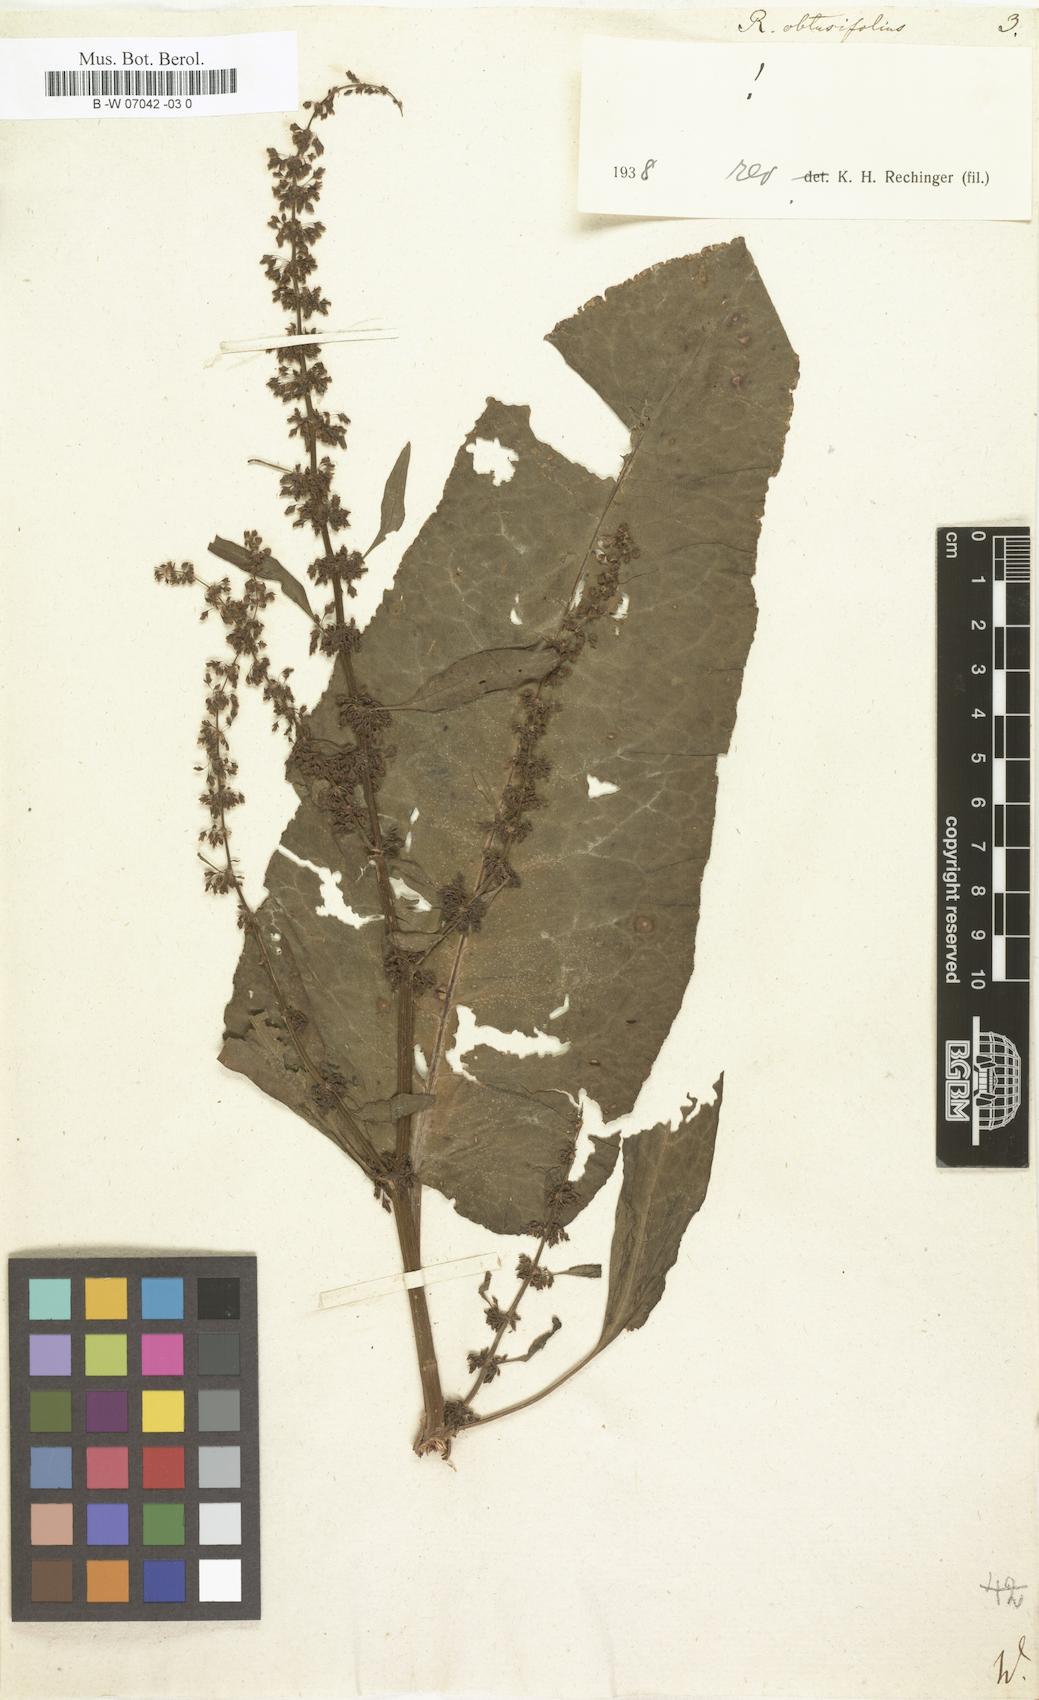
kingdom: Plantae
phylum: Tracheophyta
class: Magnoliopsida
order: Caryophyllales
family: Polygonaceae
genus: Rumex
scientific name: Rumex obtusifolius
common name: Bitter dock
